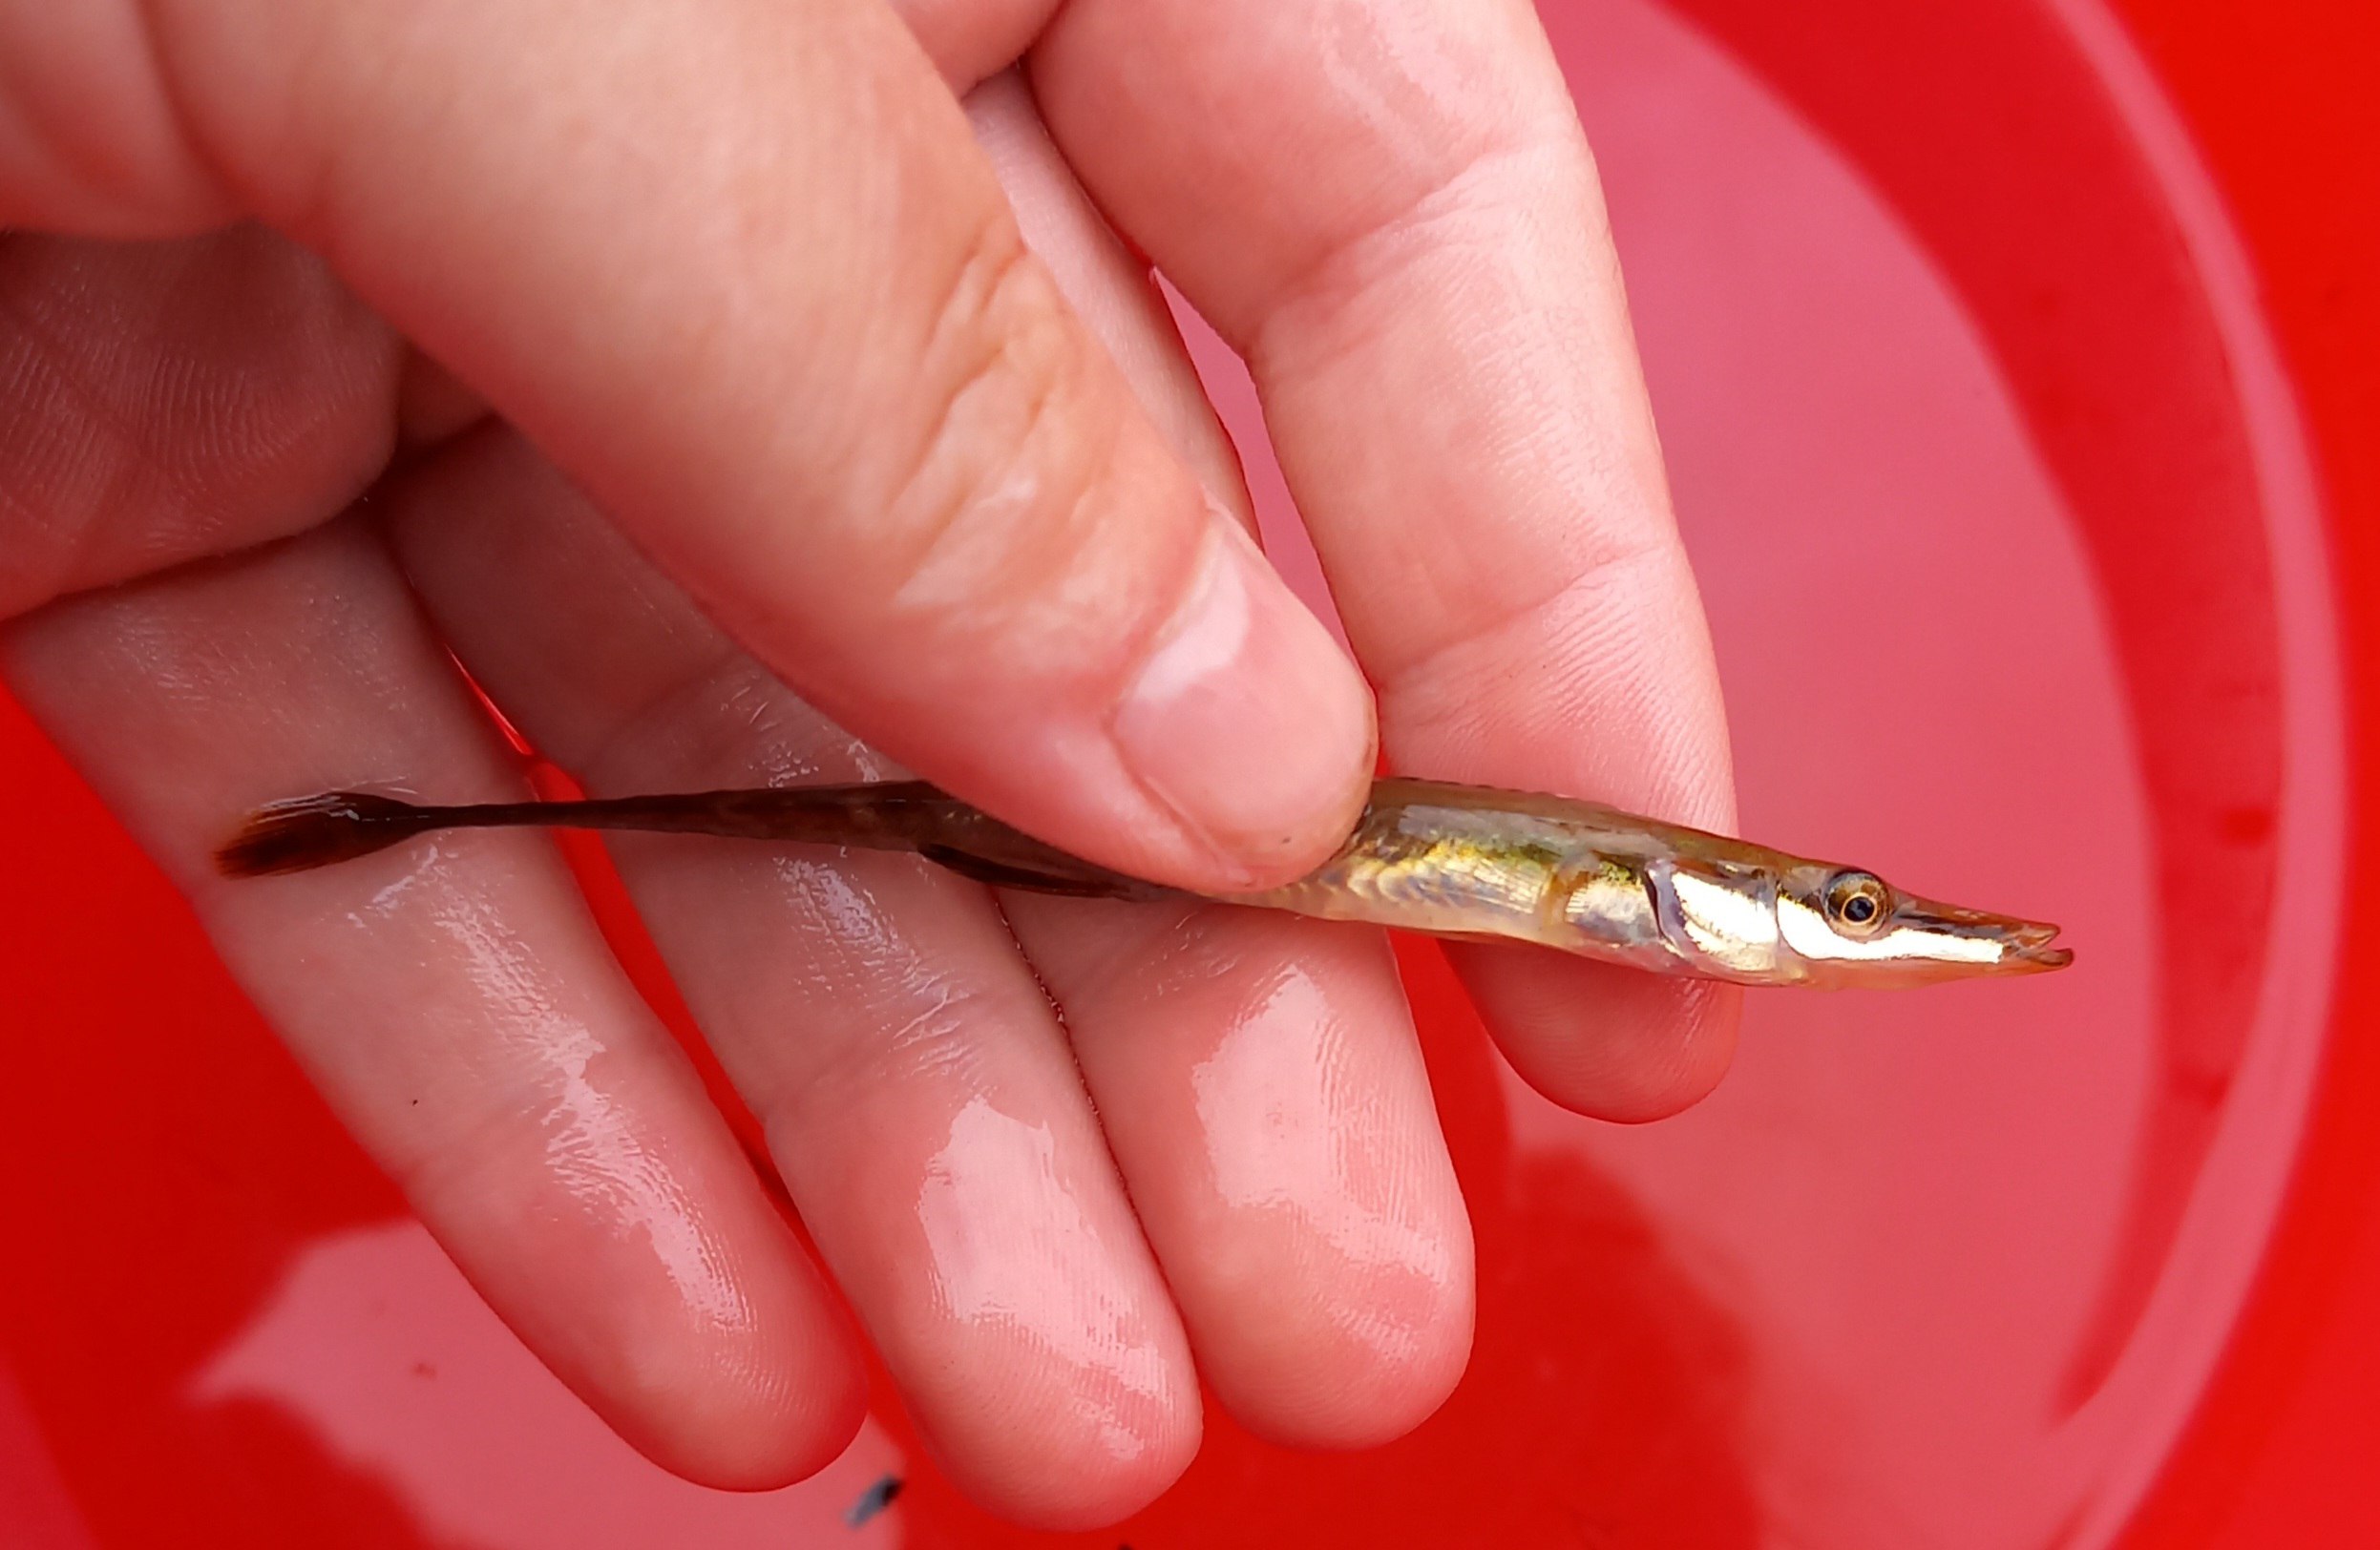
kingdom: Animalia
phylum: Chordata
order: Gasterosteiformes
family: Gasterosteidae
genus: Spinachia
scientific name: Spinachia spinachia
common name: Tangsnarre
